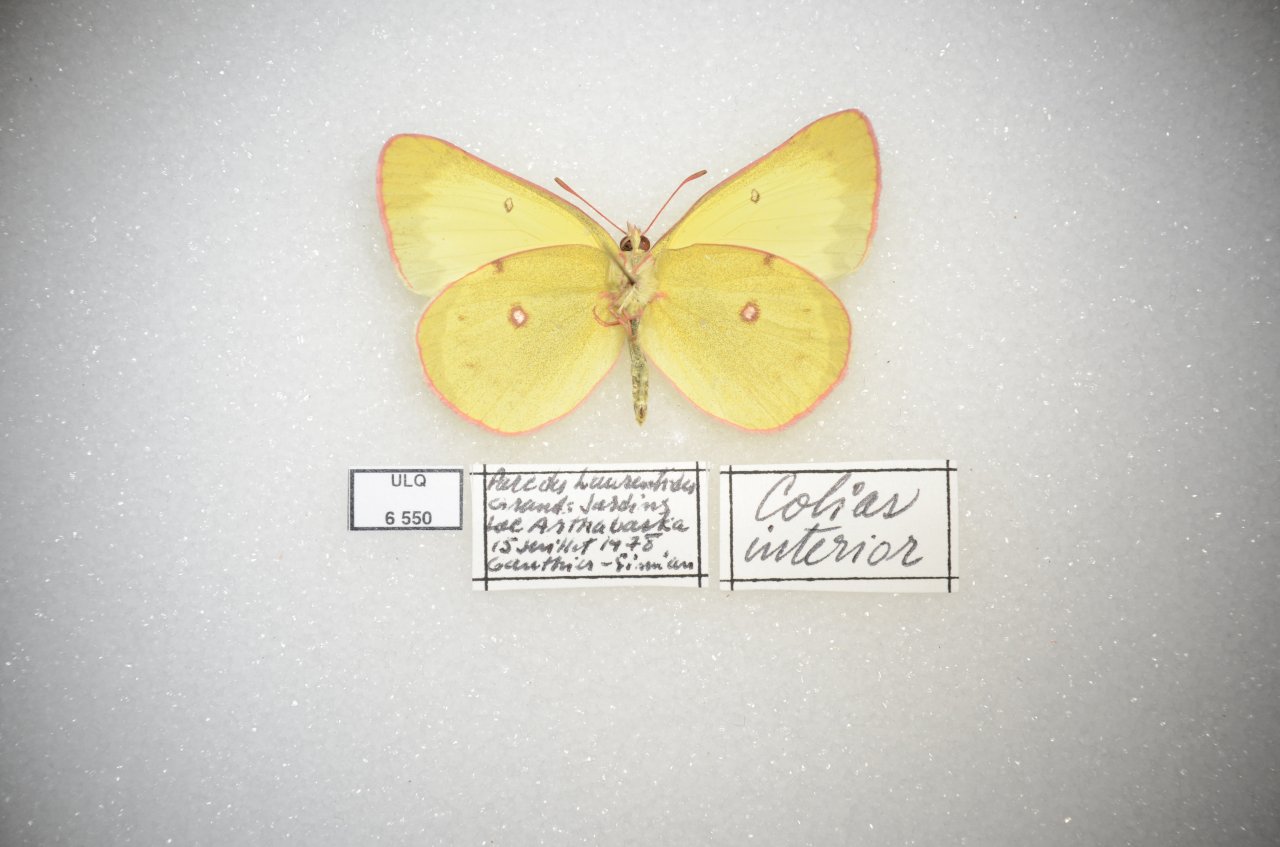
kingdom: Animalia
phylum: Arthropoda
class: Insecta
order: Lepidoptera
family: Pieridae
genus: Colias
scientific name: Colias philodice
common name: Clouded Sulphur
